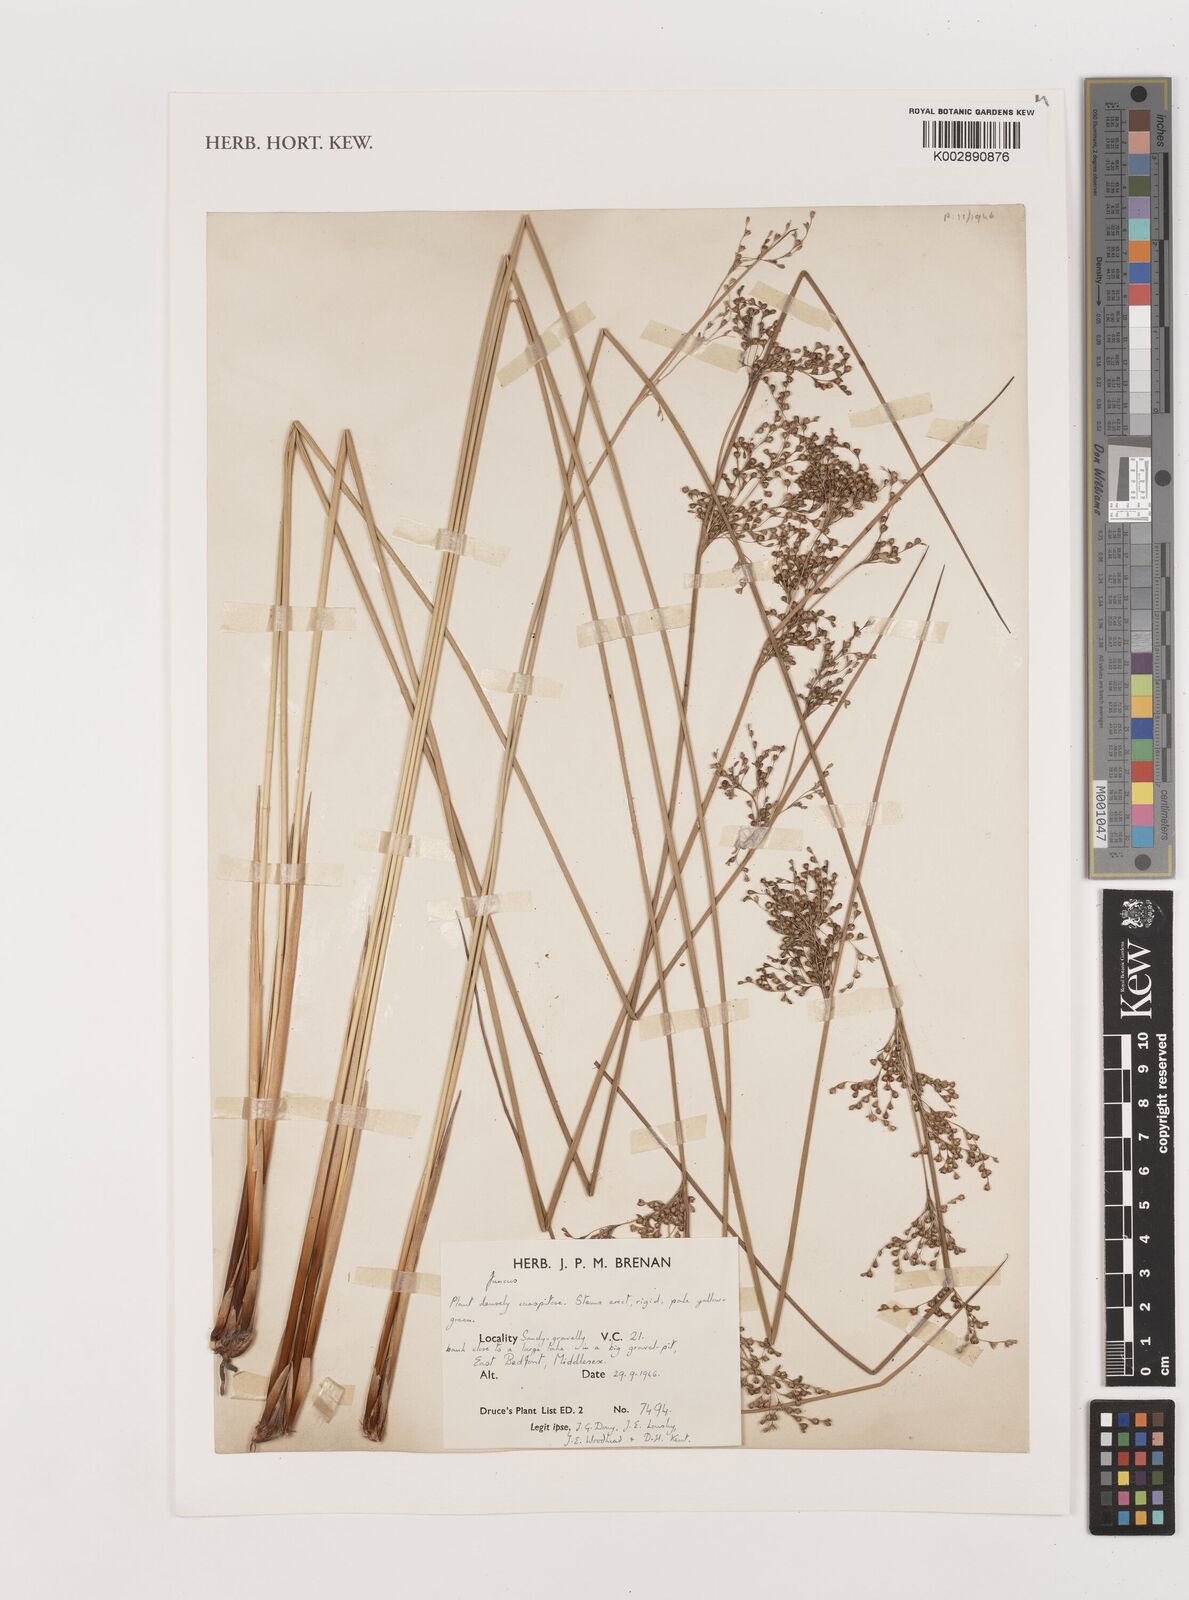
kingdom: Plantae
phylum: Tracheophyta
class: Liliopsida
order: Poales
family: Juncaceae
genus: Juncus
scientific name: Juncus
